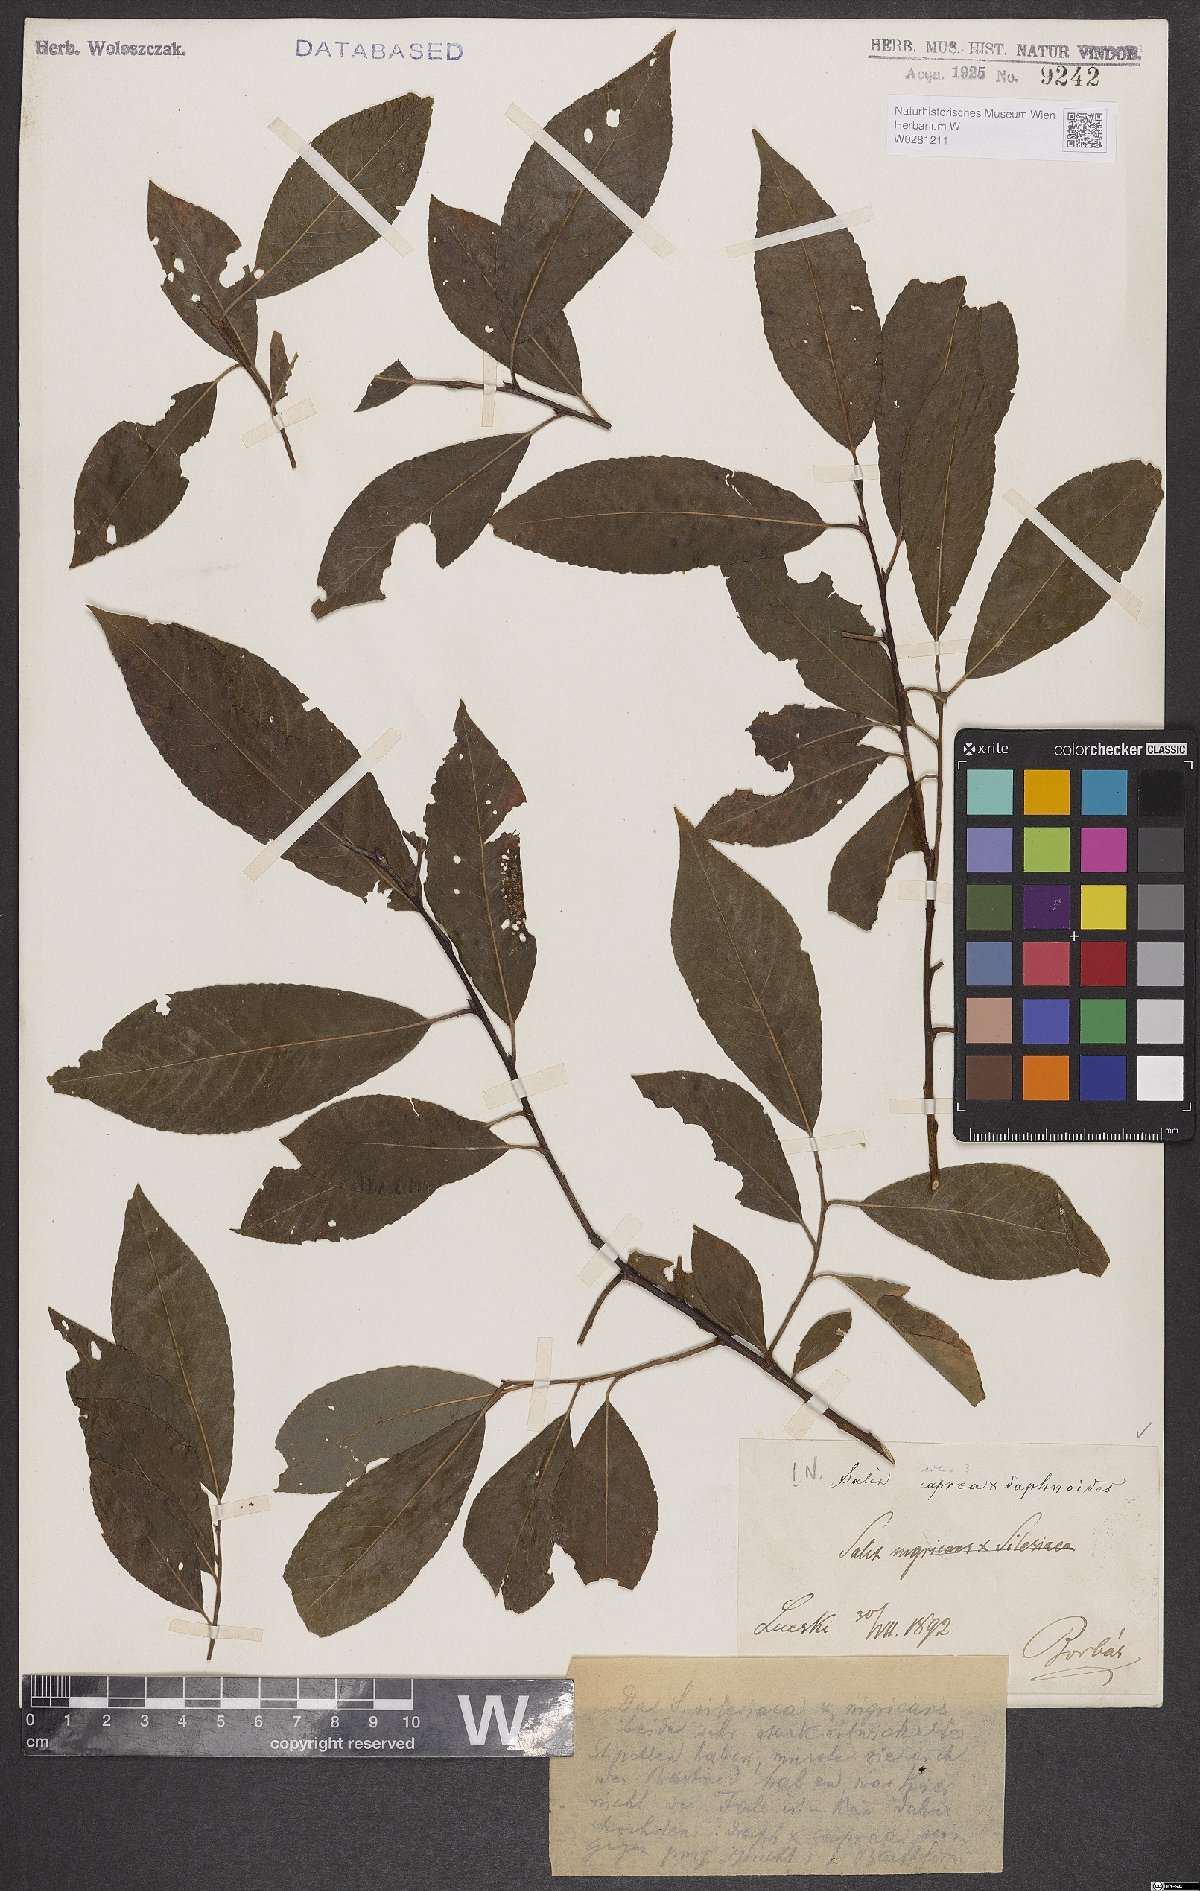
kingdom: Plantae
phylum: Tracheophyta
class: Magnoliopsida
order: Malpighiales
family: Salicaceae
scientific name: Salicaceae
